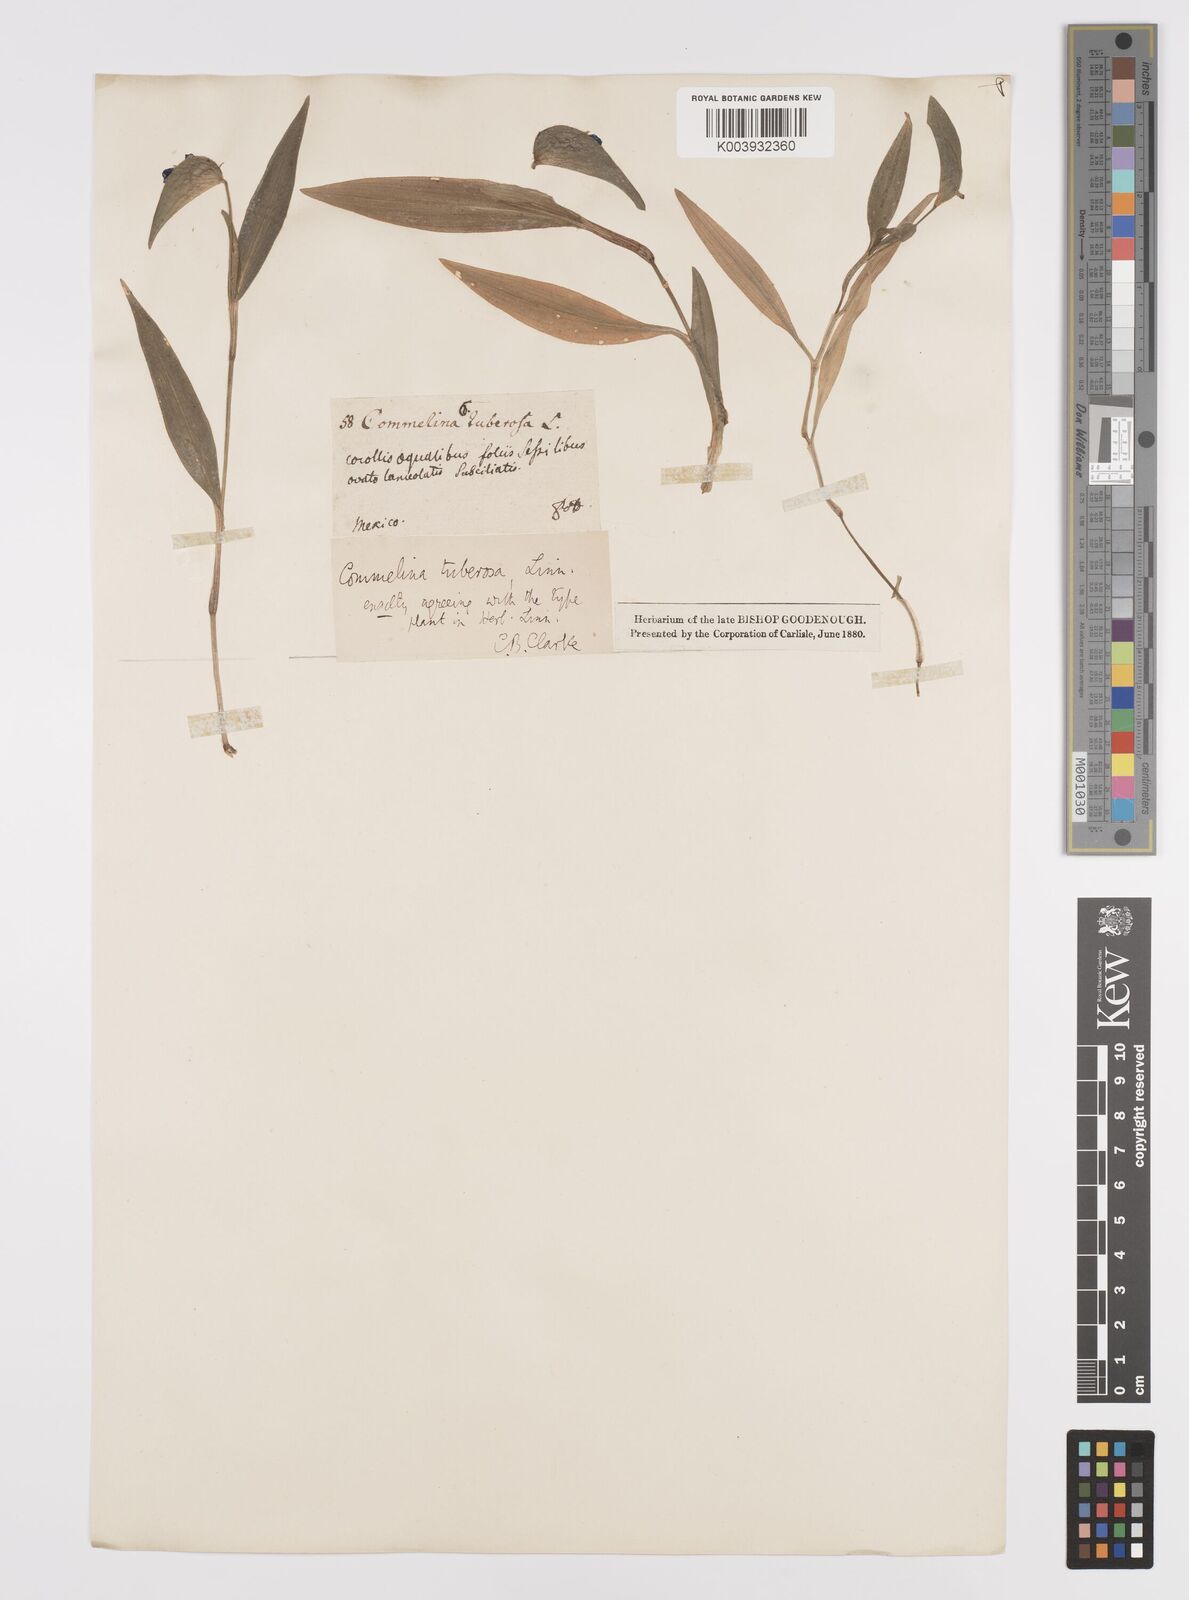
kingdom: Plantae
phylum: Tracheophyta
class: Liliopsida
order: Commelinales
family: Commelinaceae
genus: Commelina
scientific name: Commelina tuberosa
